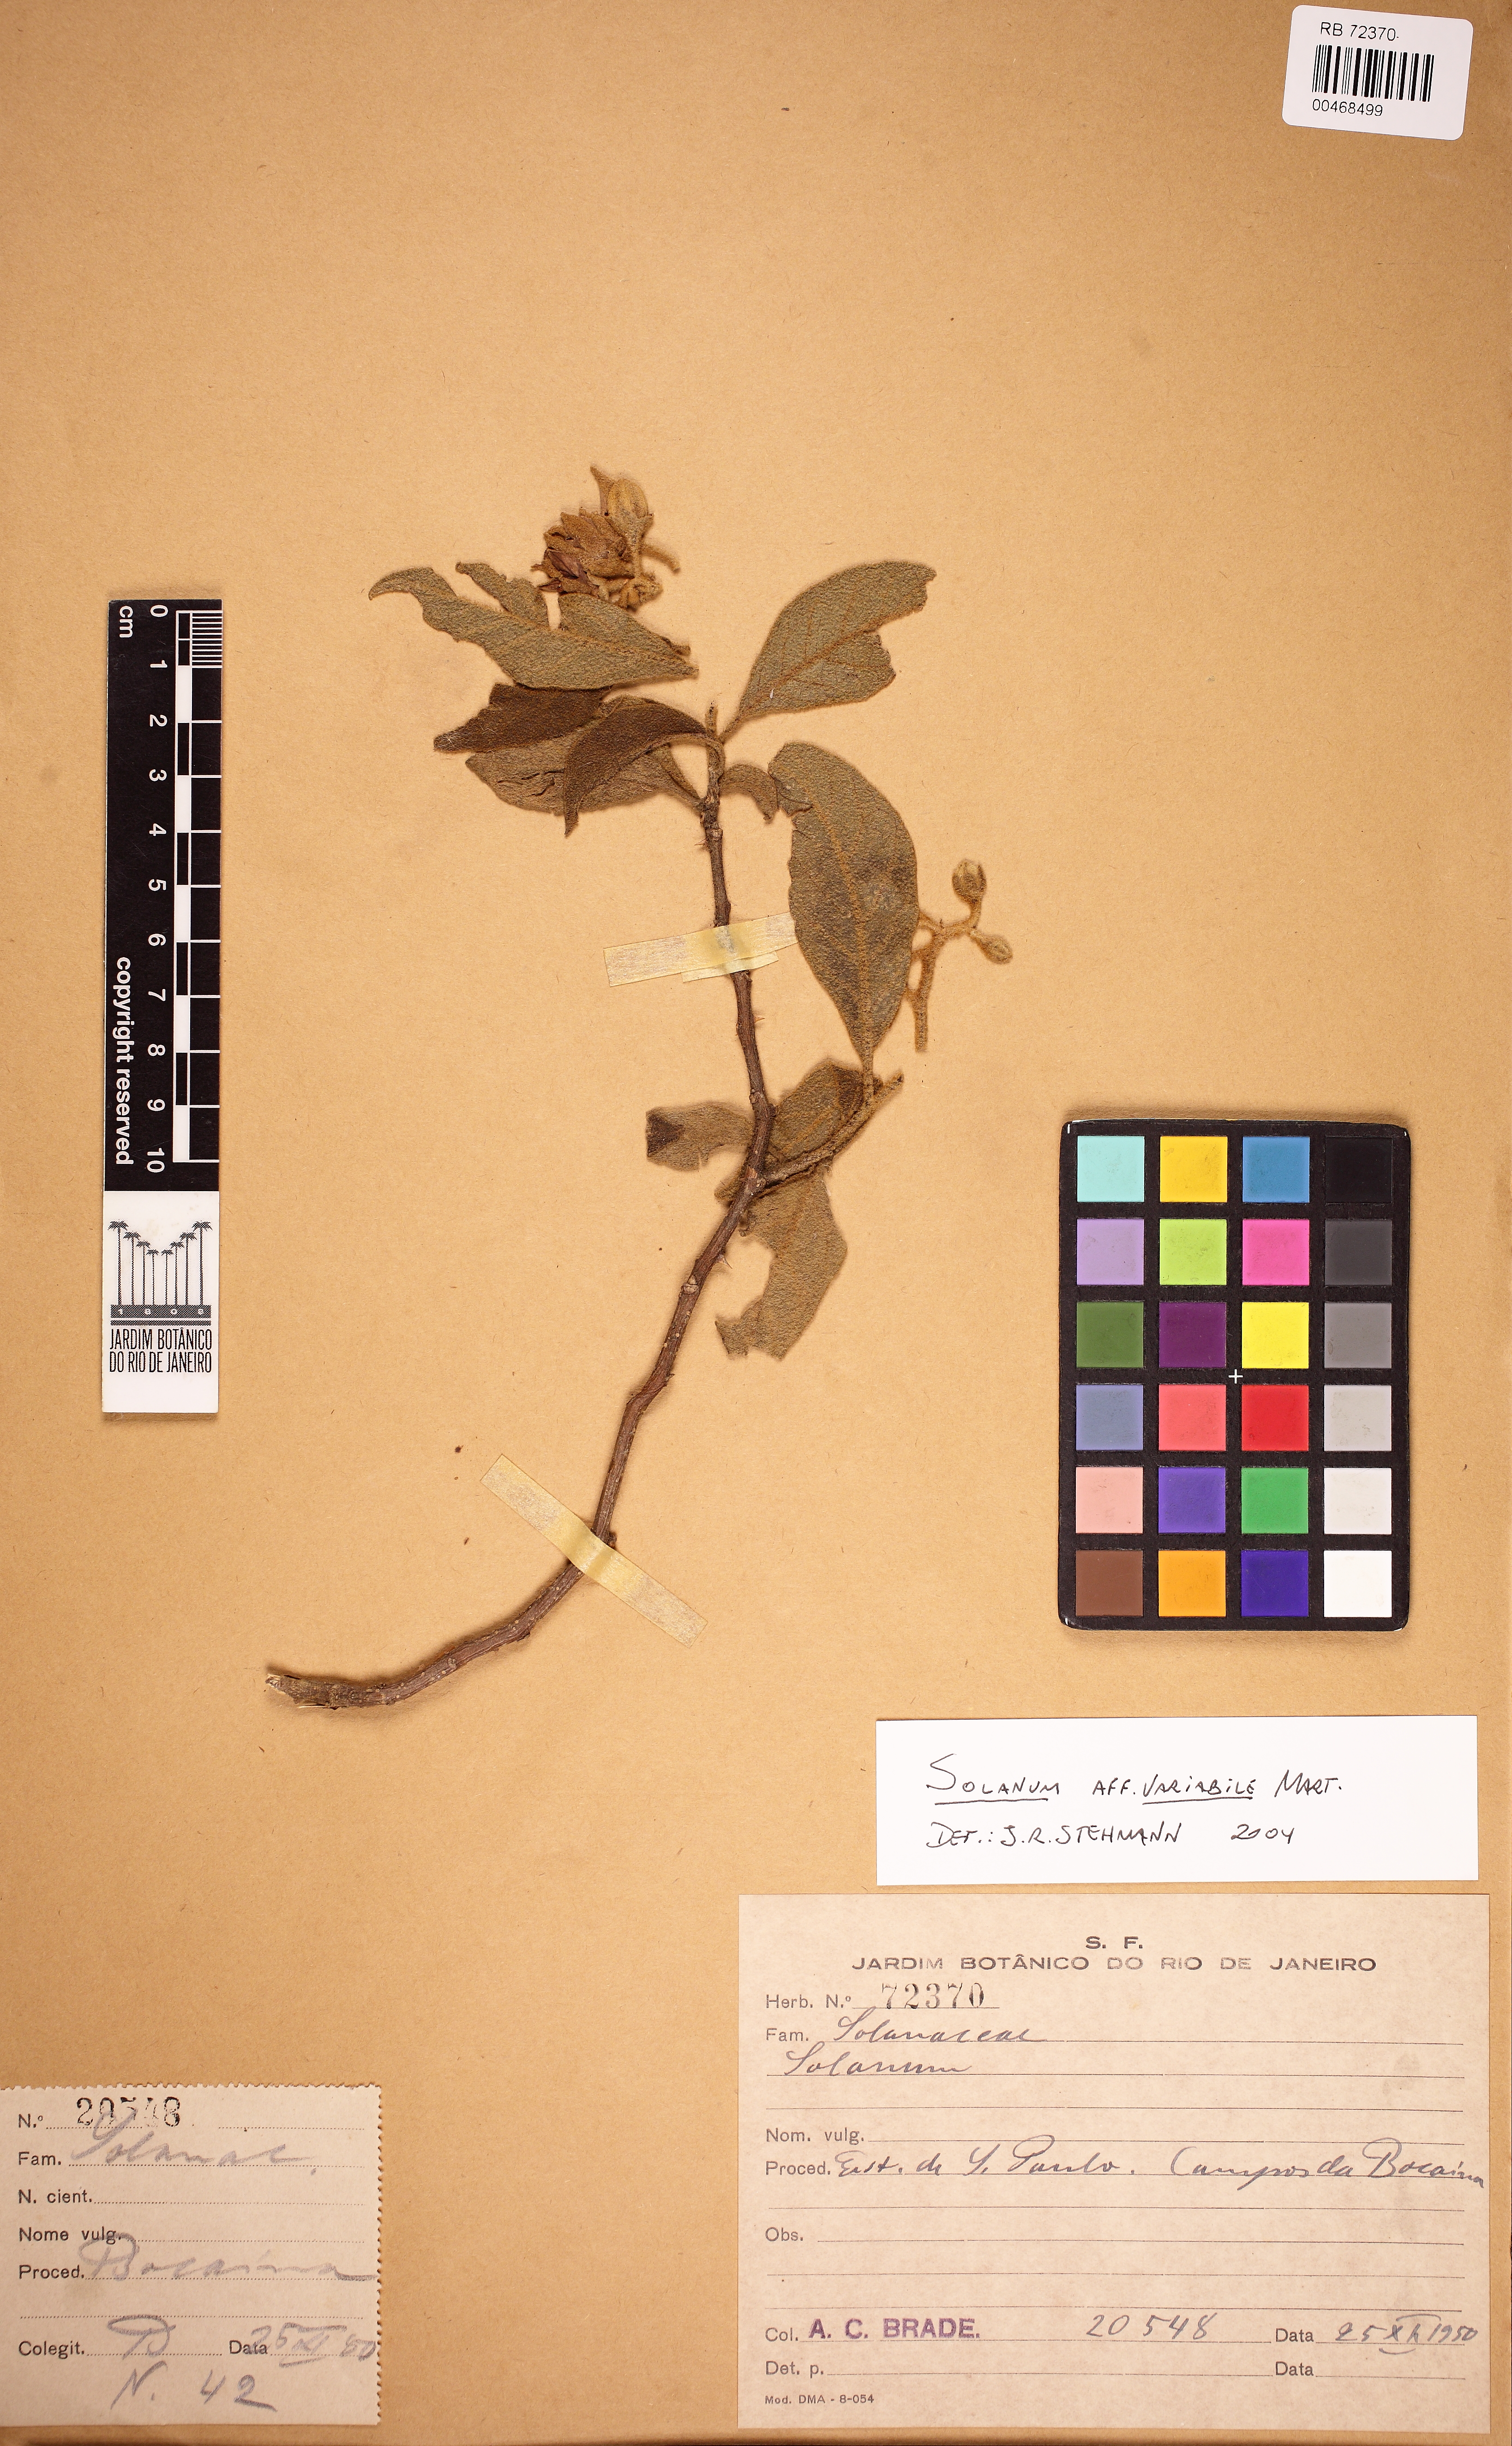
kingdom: Plantae
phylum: Tracheophyta
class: Magnoliopsida
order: Solanales
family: Solanaceae
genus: Solanum
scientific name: Solanum variabile
